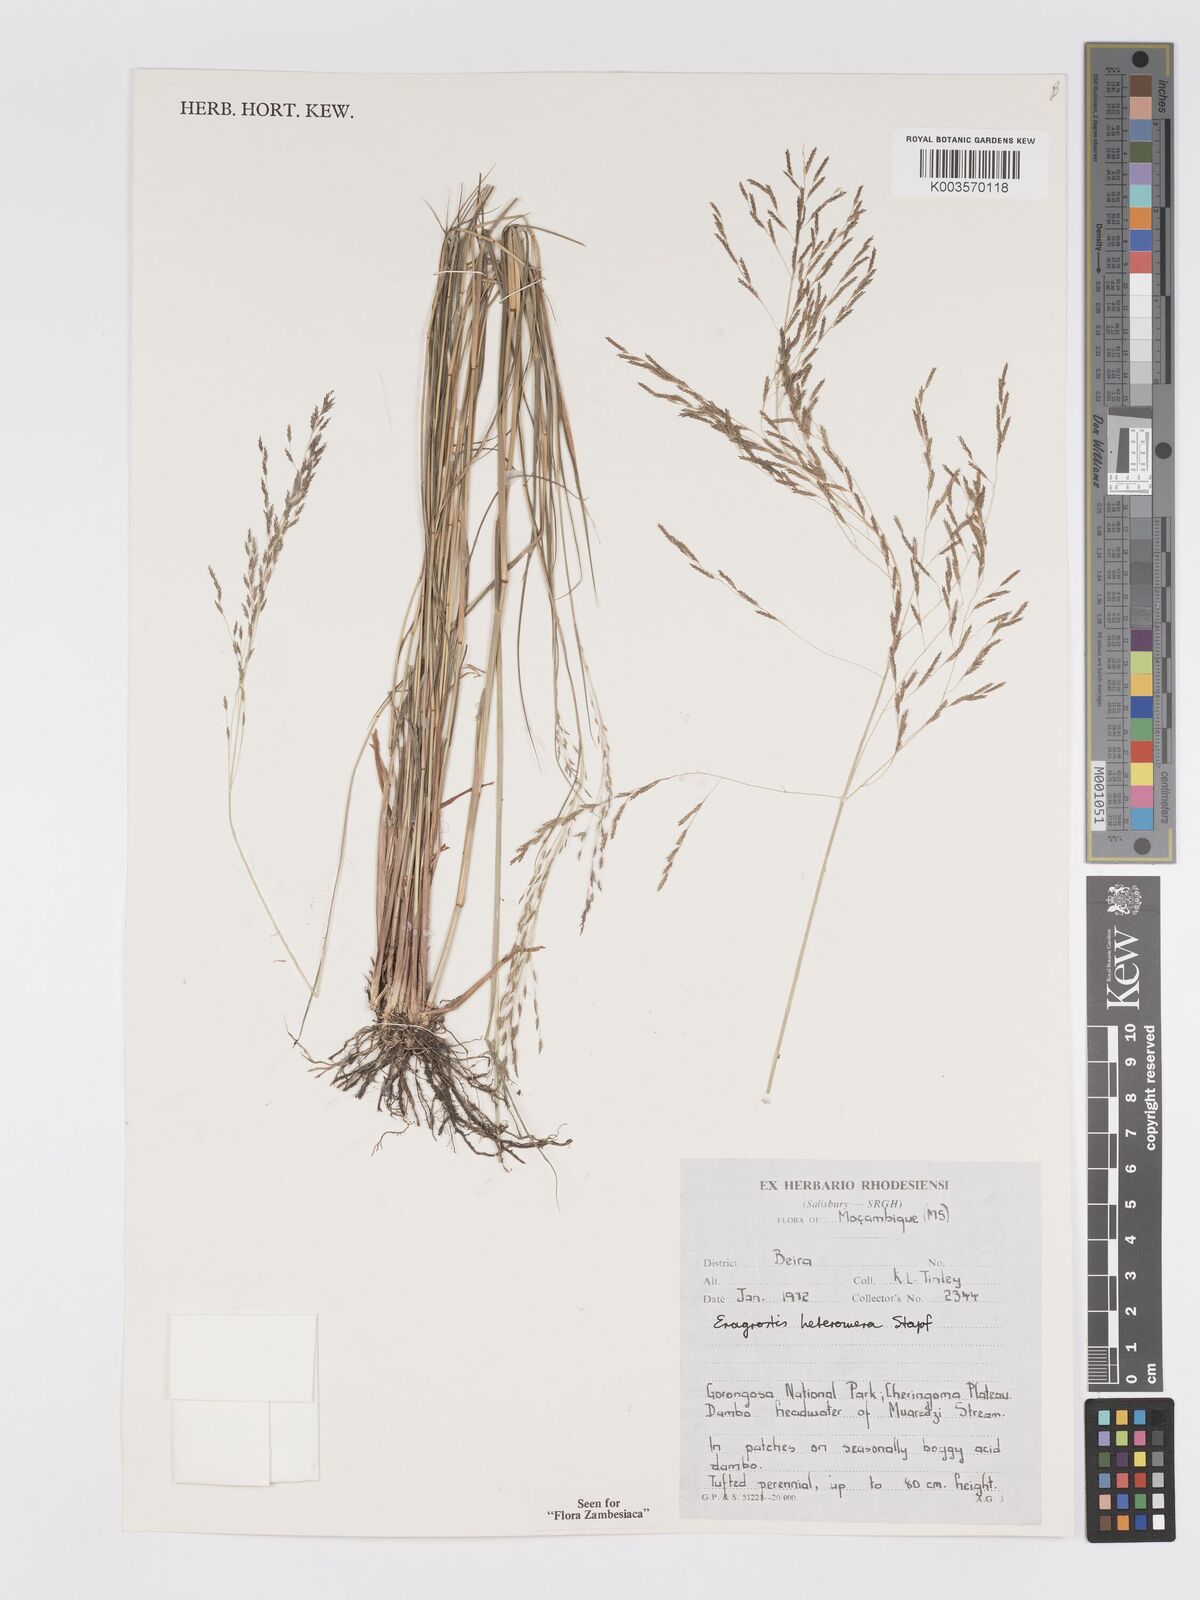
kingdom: Plantae
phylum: Tracheophyta
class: Liliopsida
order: Poales
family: Poaceae
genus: Eragrostis
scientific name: Eragrostis heteromera
